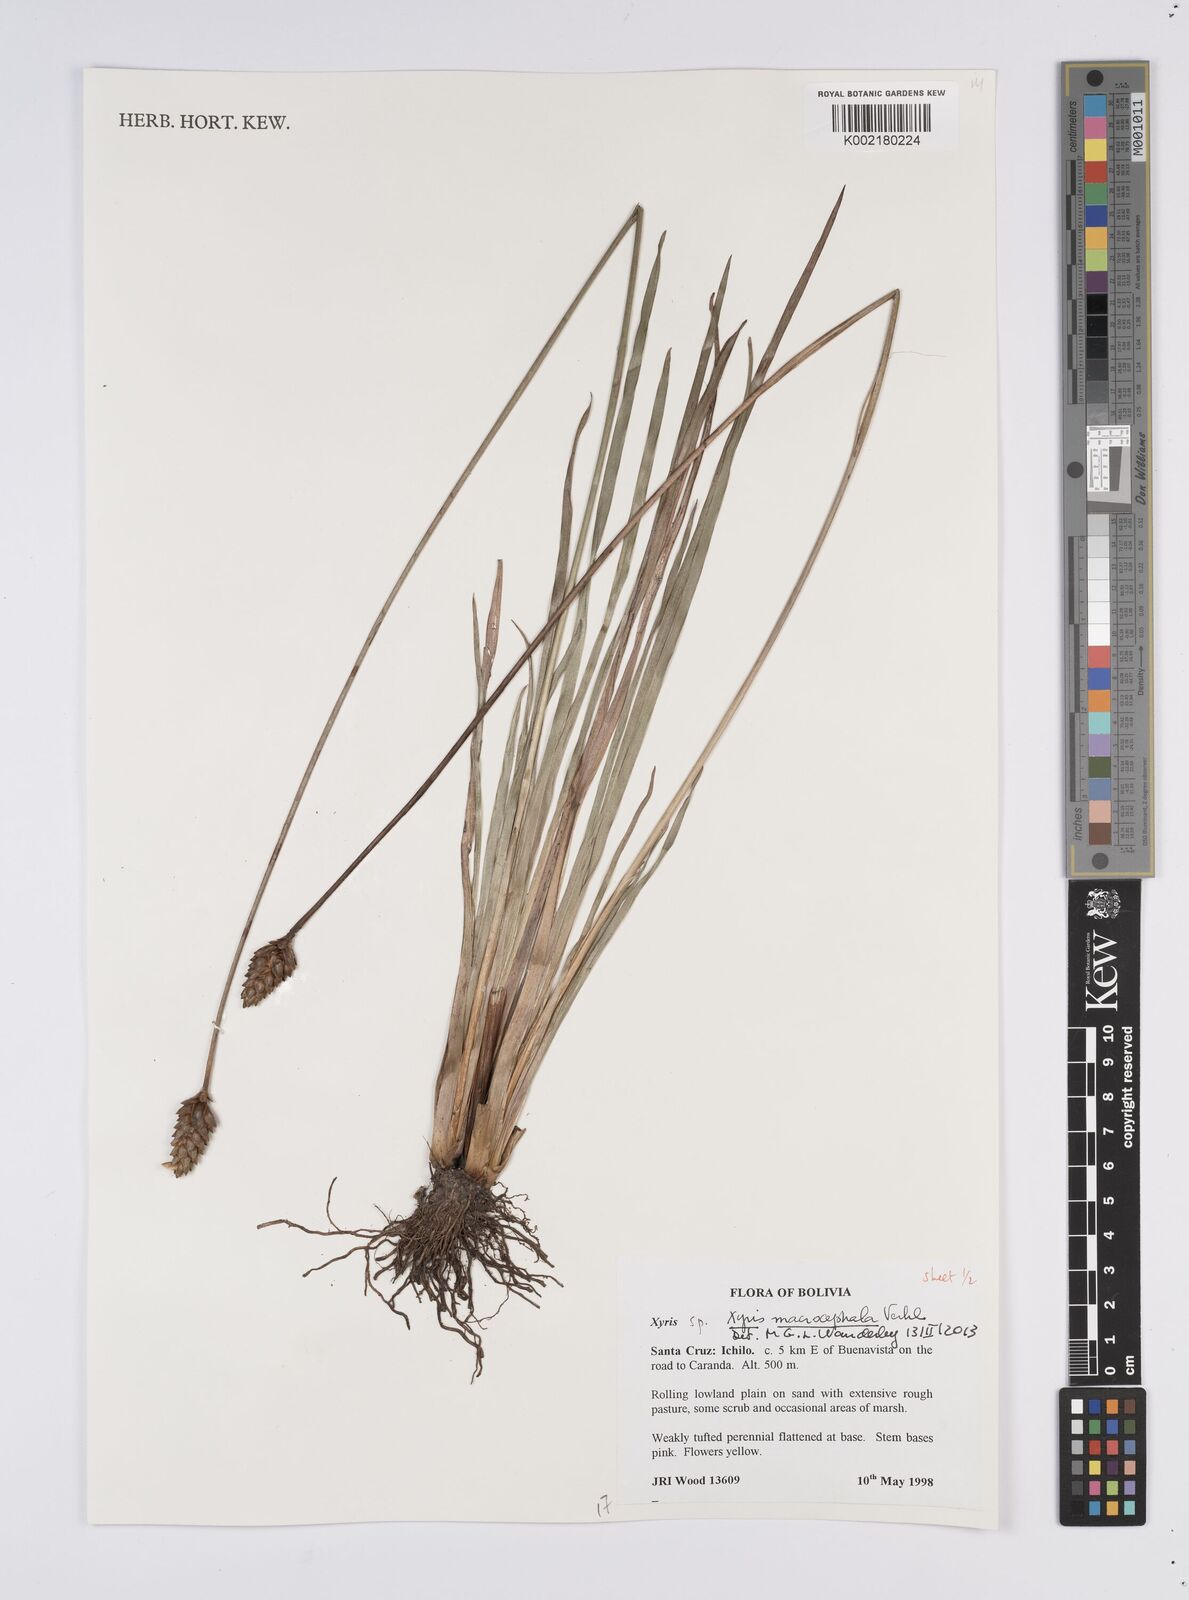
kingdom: Plantae
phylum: Tracheophyta
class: Liliopsida
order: Poales
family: Xyridaceae
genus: Xyris
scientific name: Xyris laxiflora
